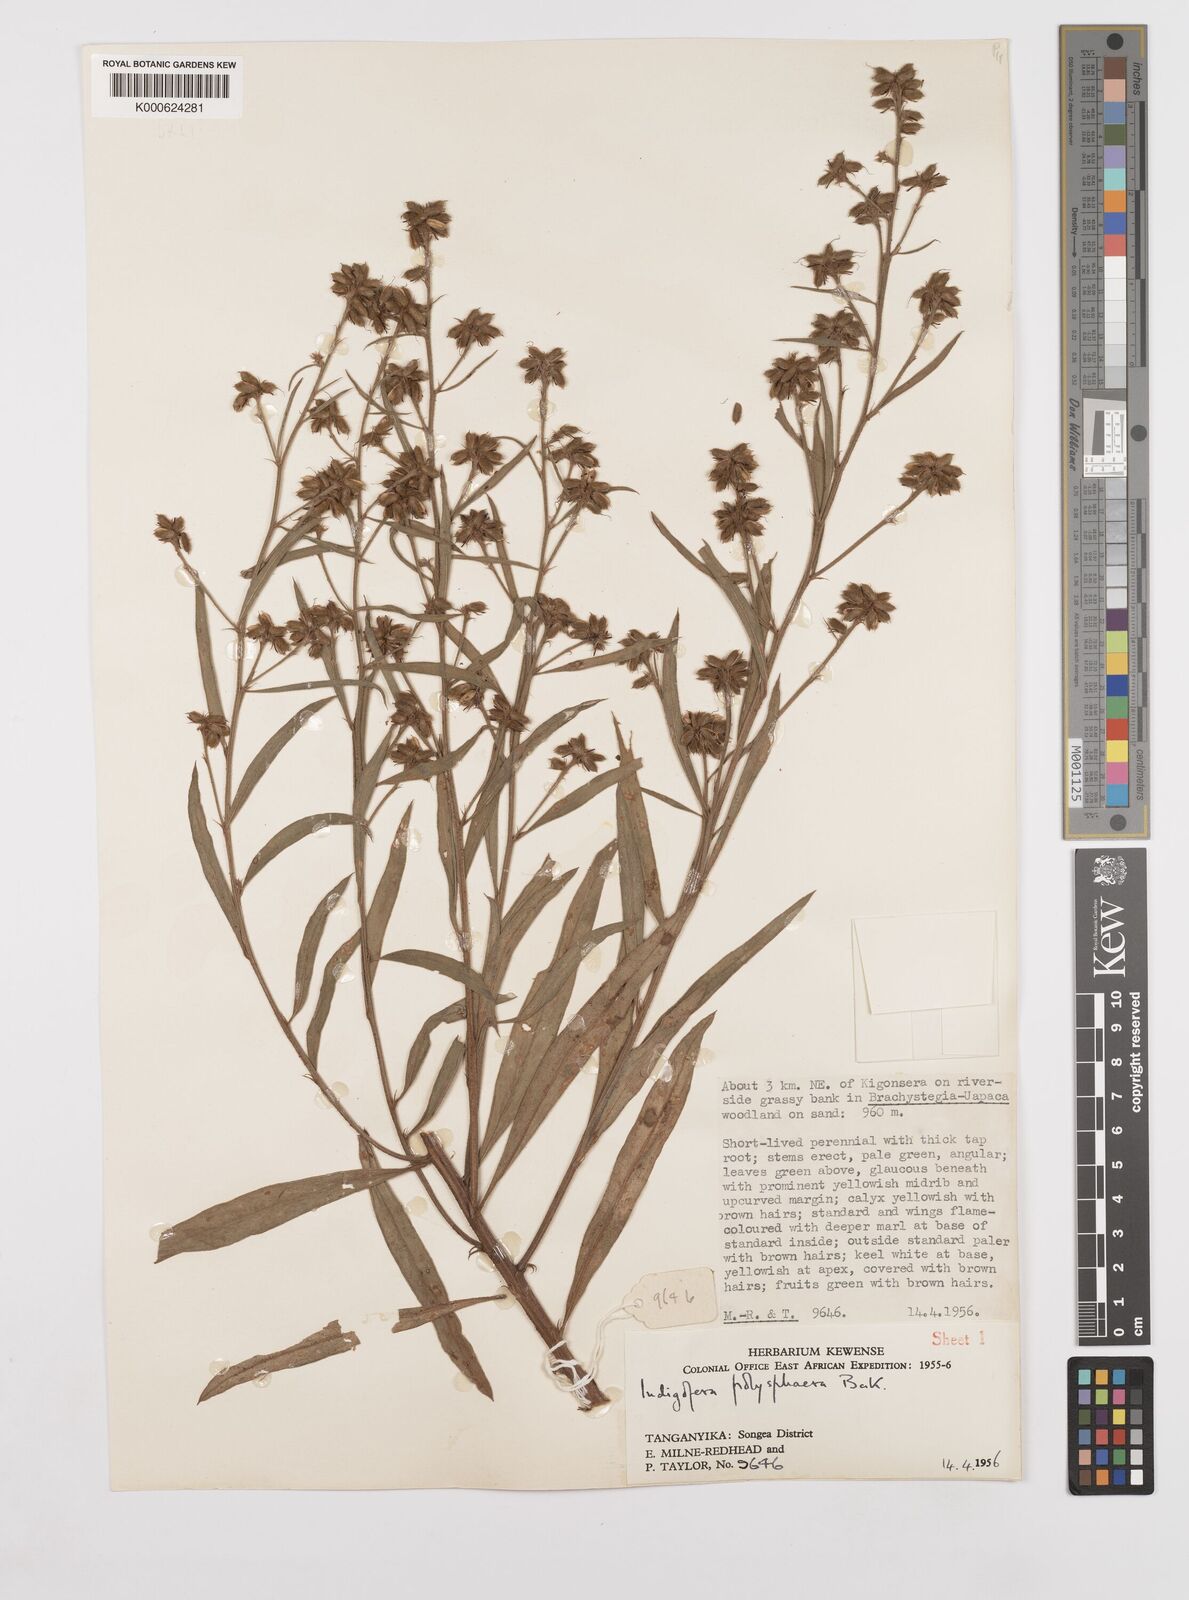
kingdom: Plantae
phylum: Tracheophyta
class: Magnoliopsida
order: Fabales
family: Fabaceae
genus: Indigofera
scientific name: Indigofera polysphaera
